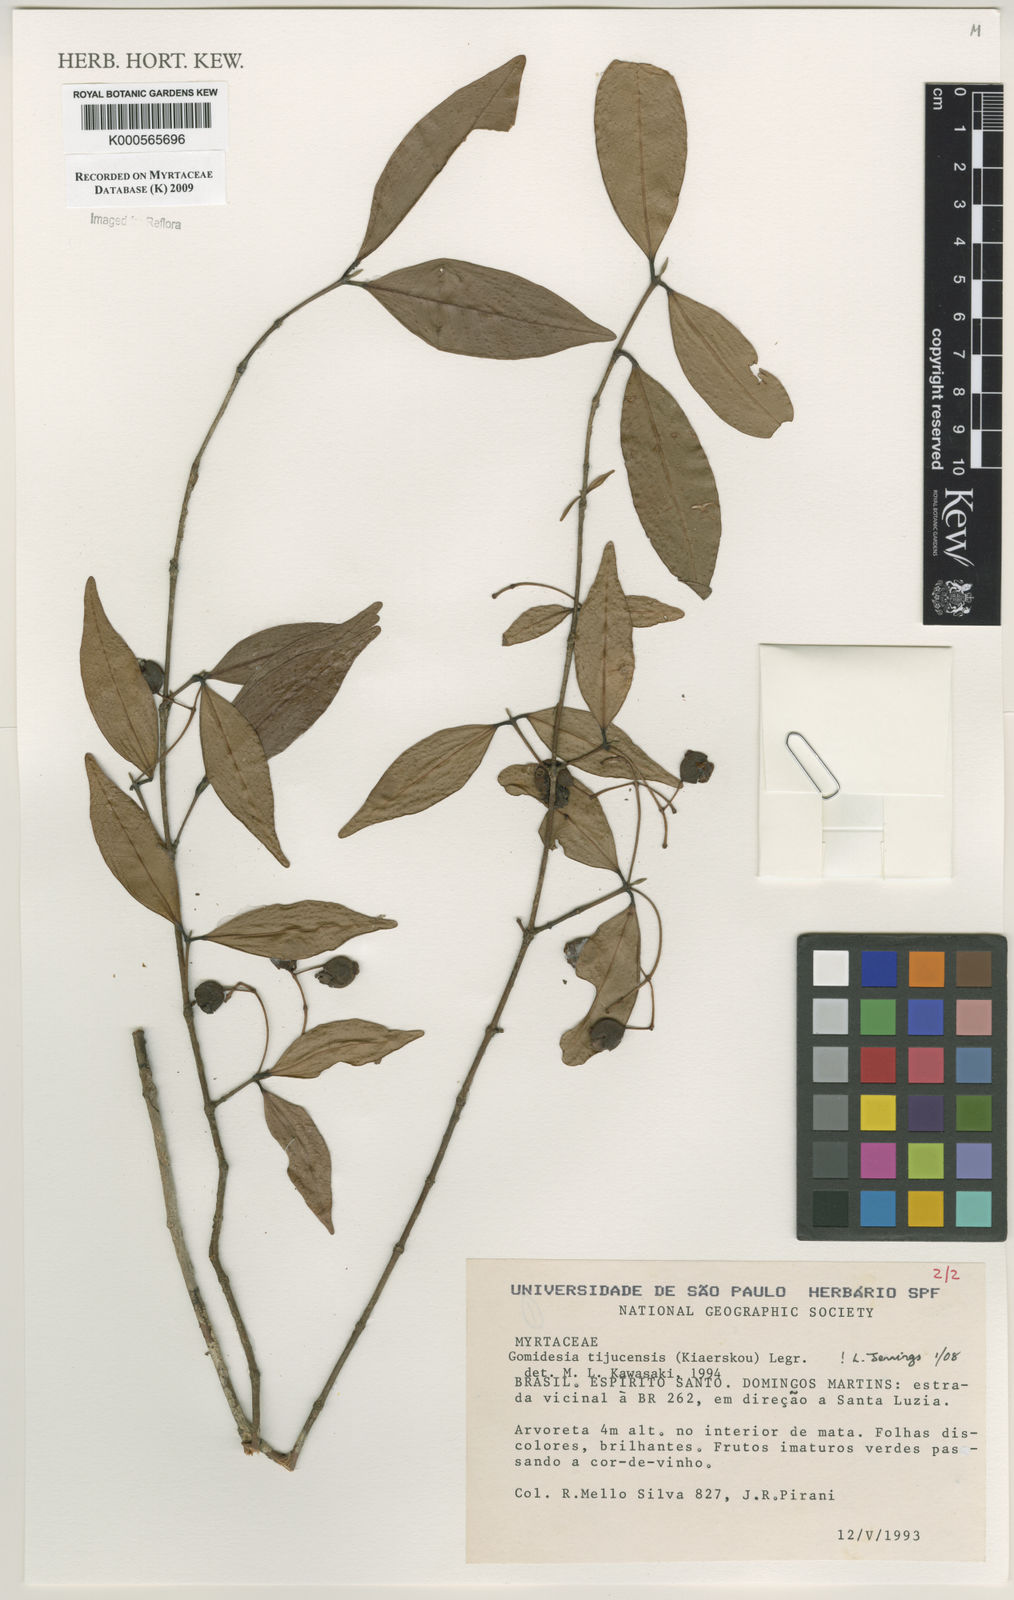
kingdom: Plantae
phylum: Tracheophyta
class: Magnoliopsida
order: Myrtales
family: Myrtaceae
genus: Myrcia
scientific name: Myrcia tijucensis
